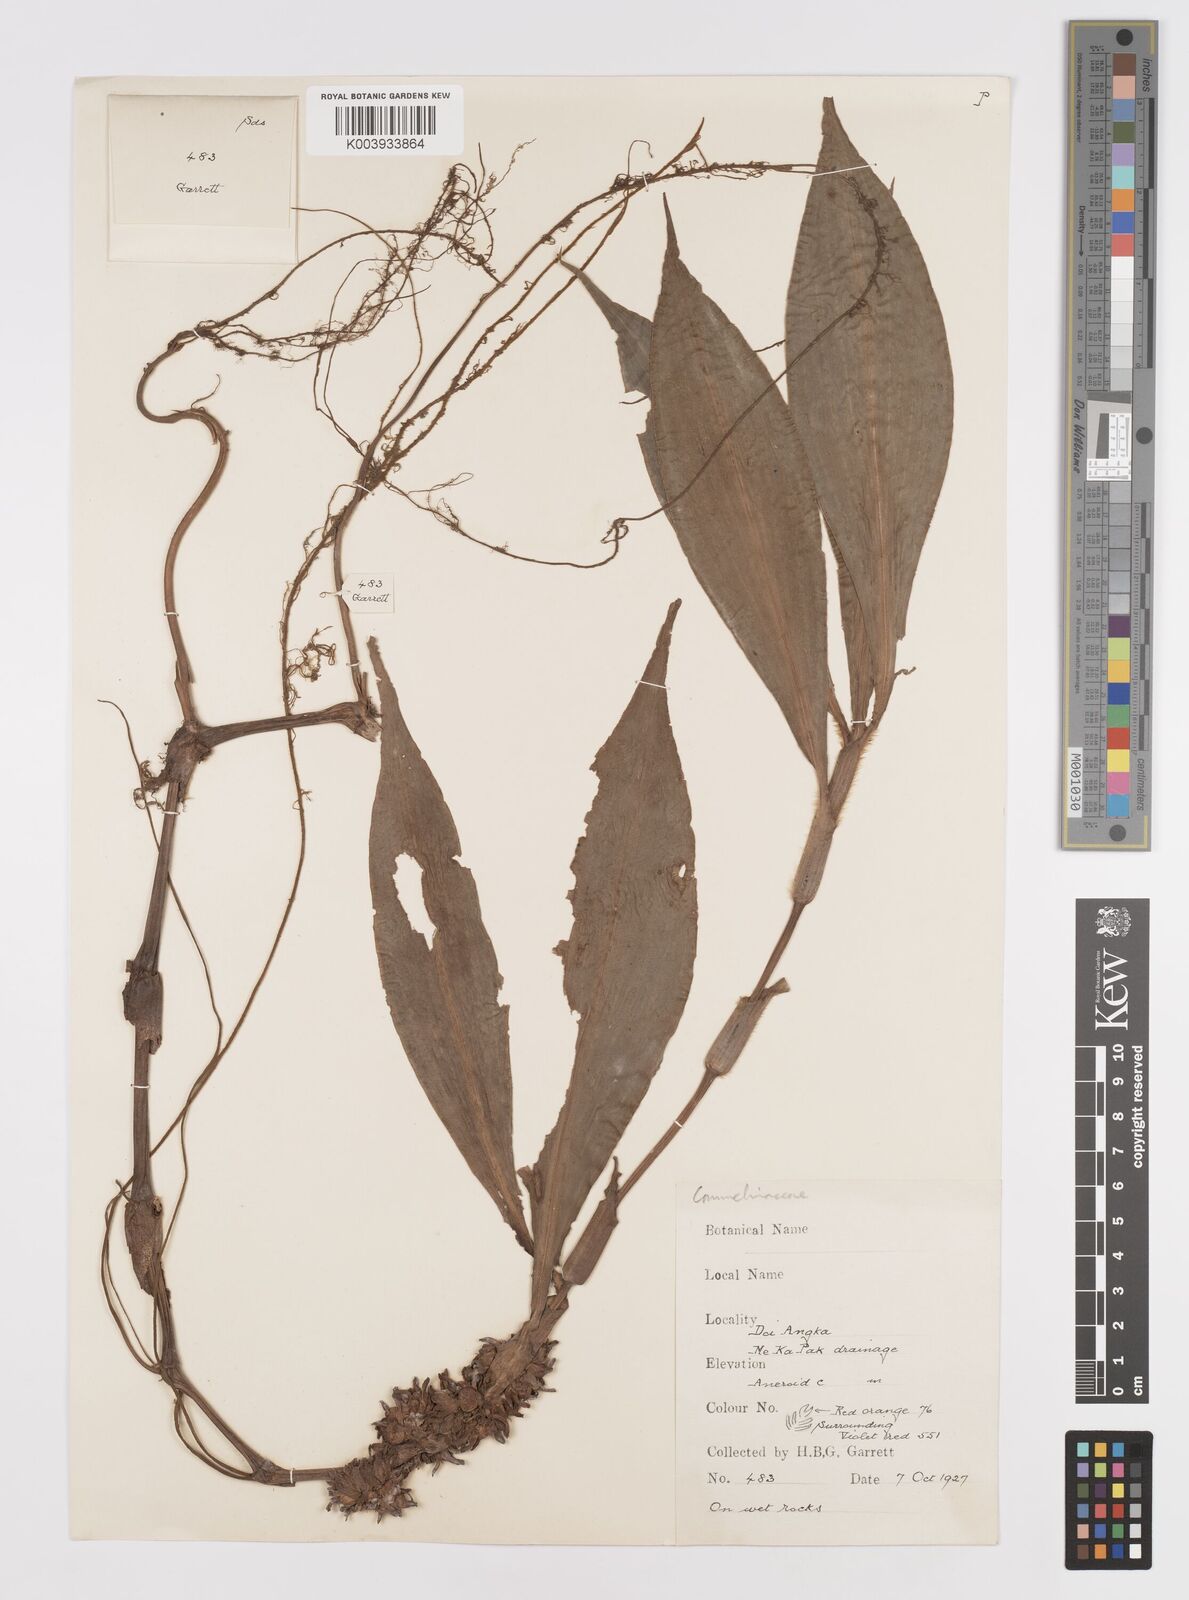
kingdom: Plantae
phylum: Tracheophyta
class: Liliopsida
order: Commelinales
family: Commelinaceae
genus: Amischotolype
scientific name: Amischotolype
